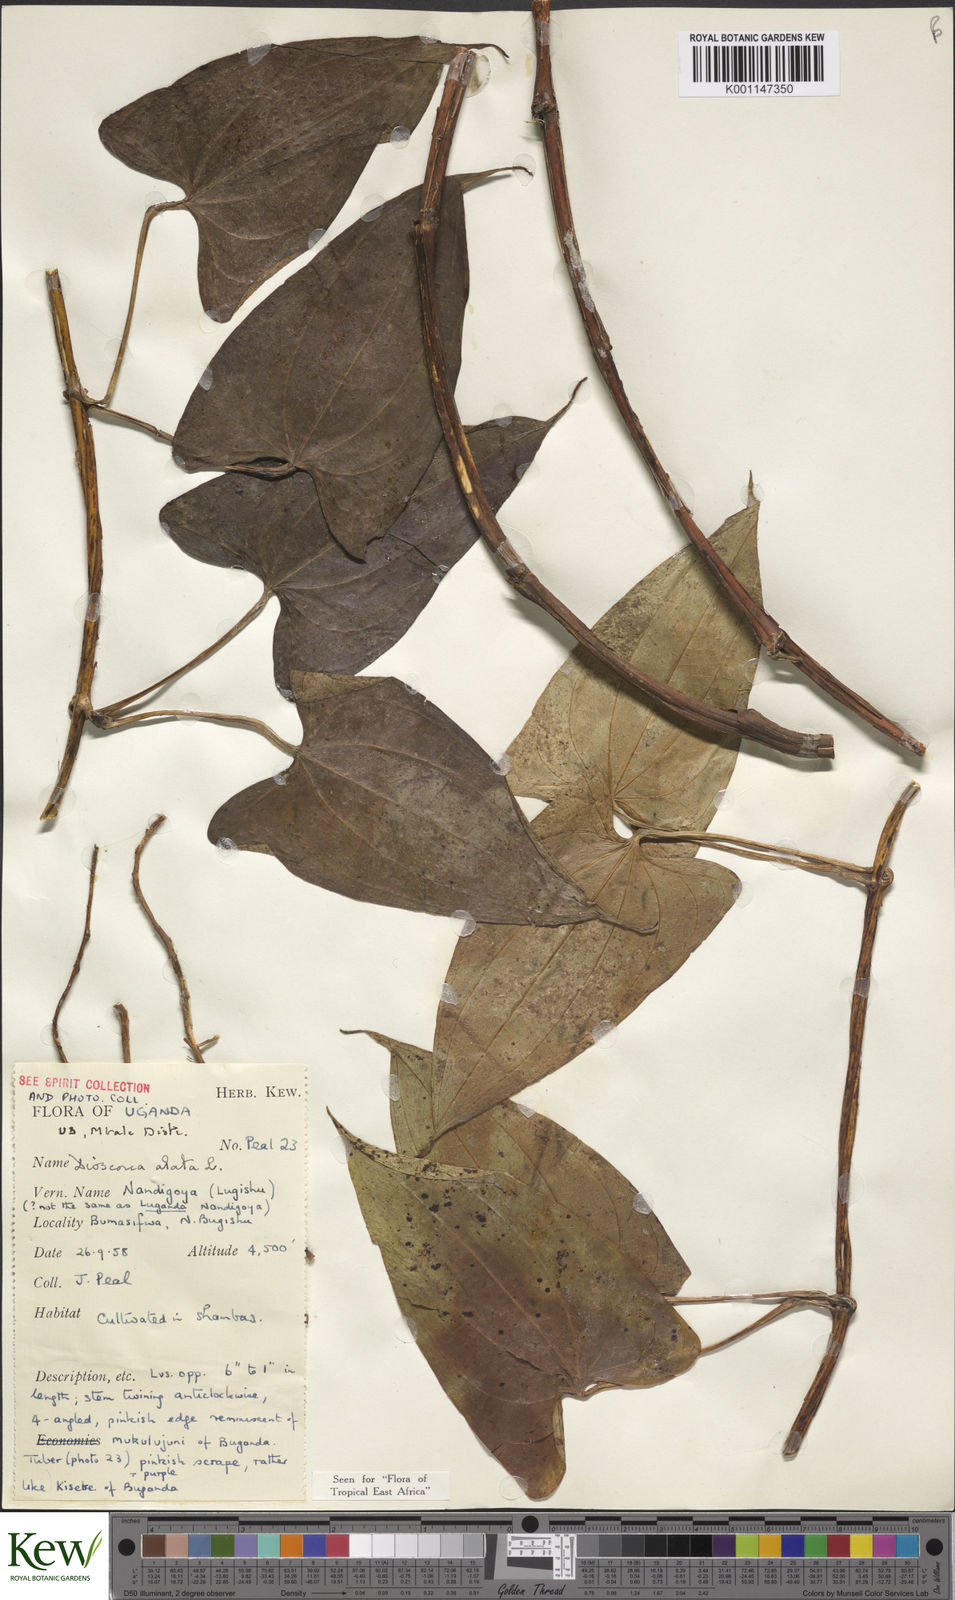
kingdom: Plantae
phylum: Tracheophyta
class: Liliopsida
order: Dioscoreales
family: Dioscoreaceae
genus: Dioscorea
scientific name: Dioscorea alata
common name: Water yam
